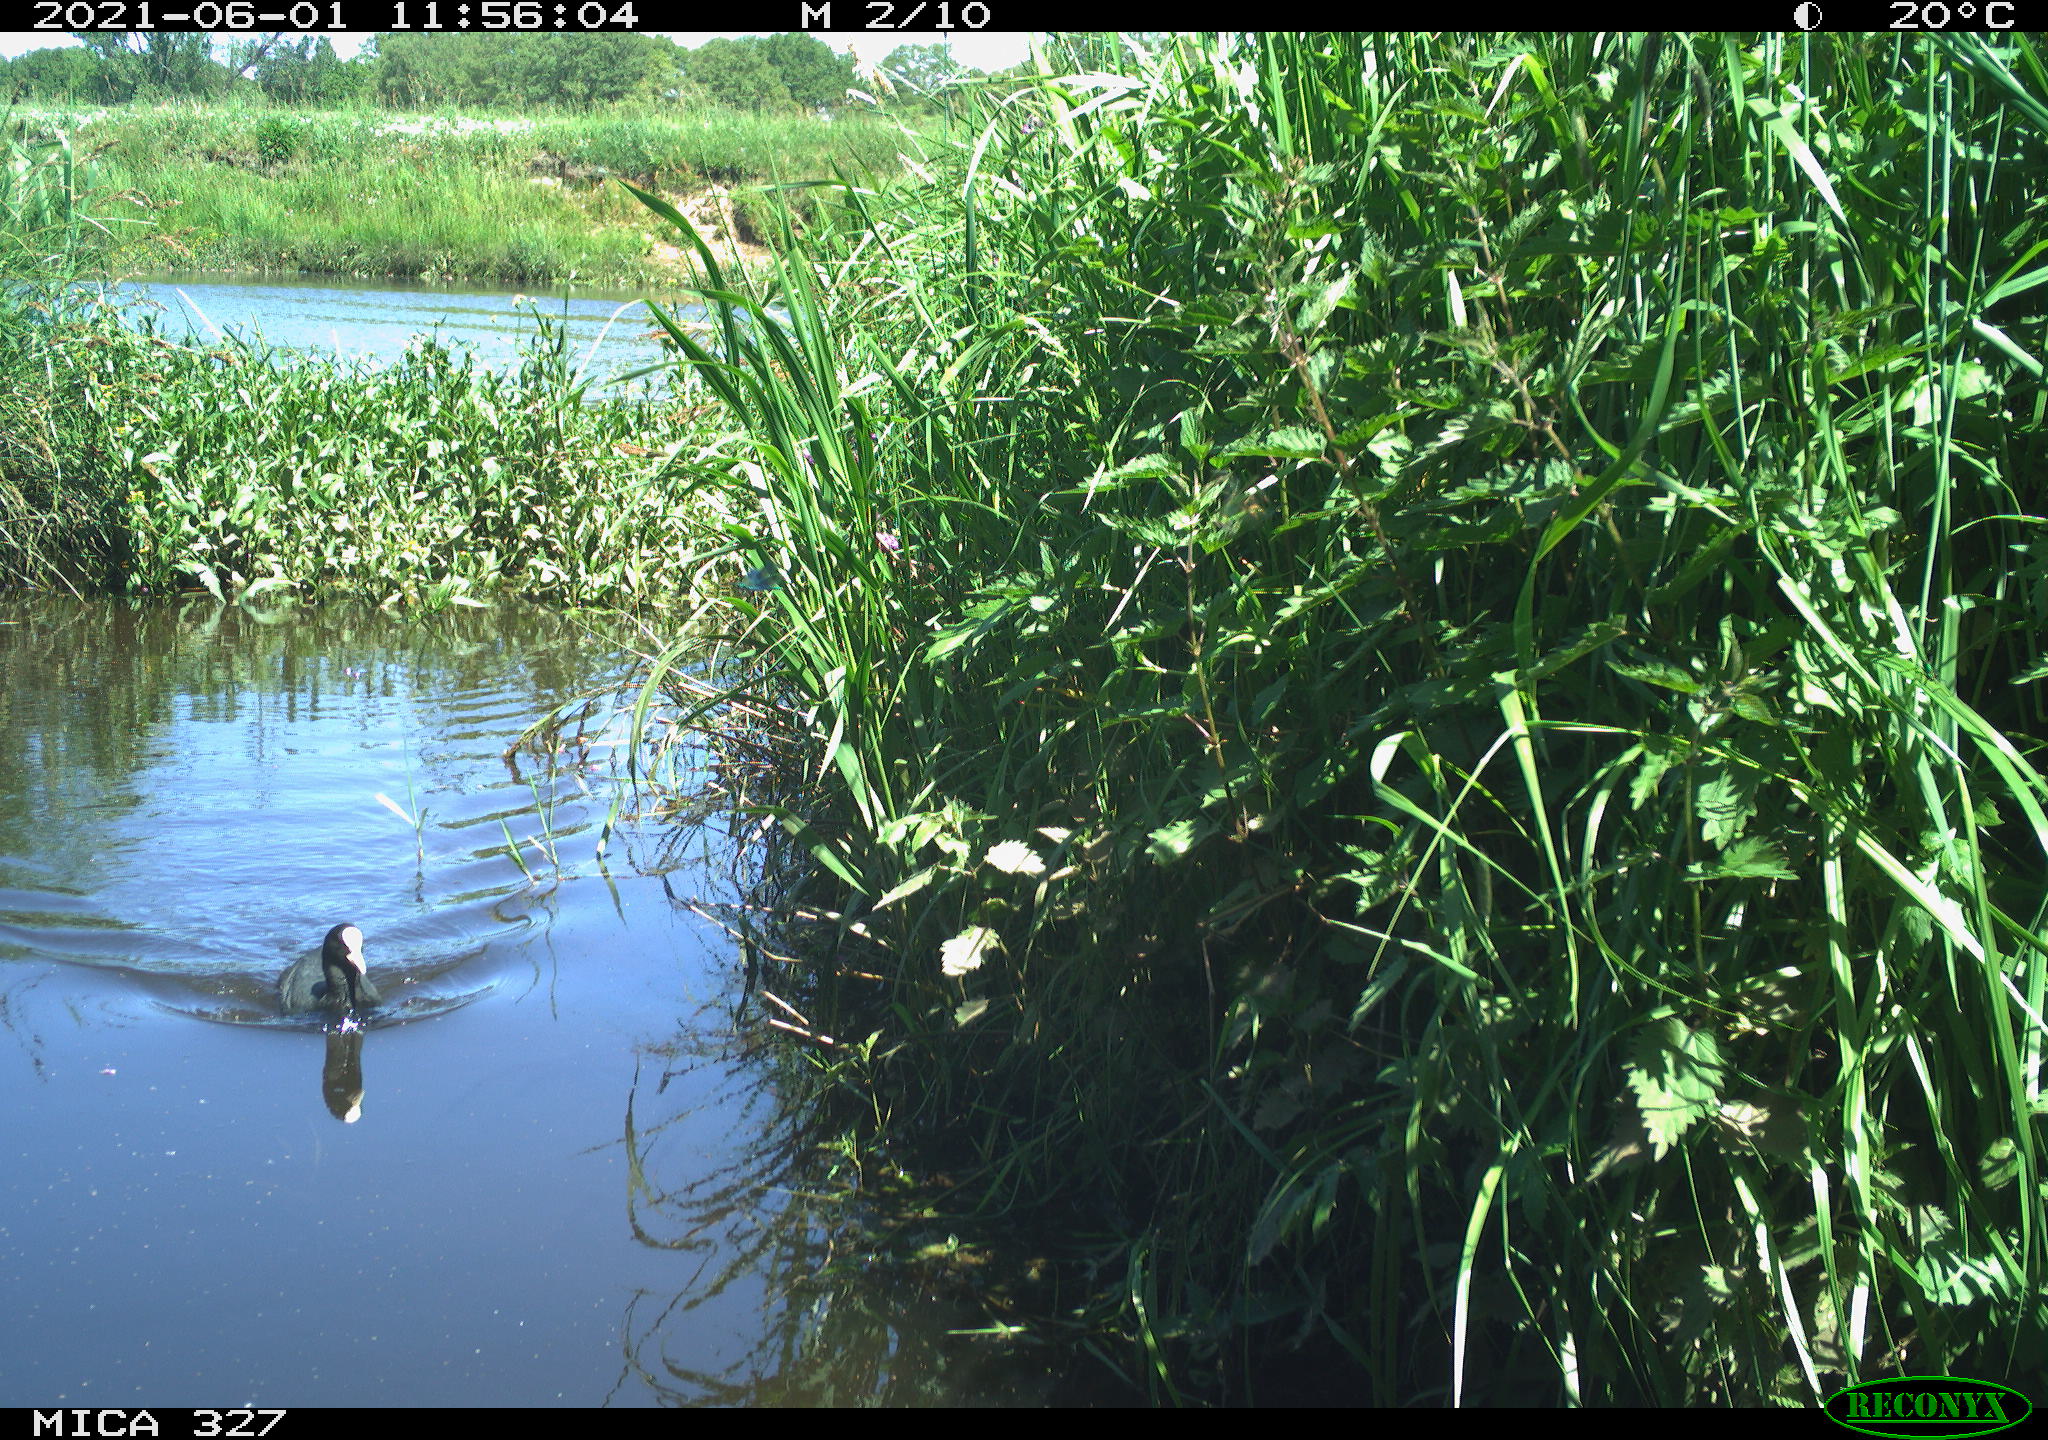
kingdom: Animalia
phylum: Chordata
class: Aves
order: Gruiformes
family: Rallidae
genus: Fulica
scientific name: Fulica atra
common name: Eurasian coot
